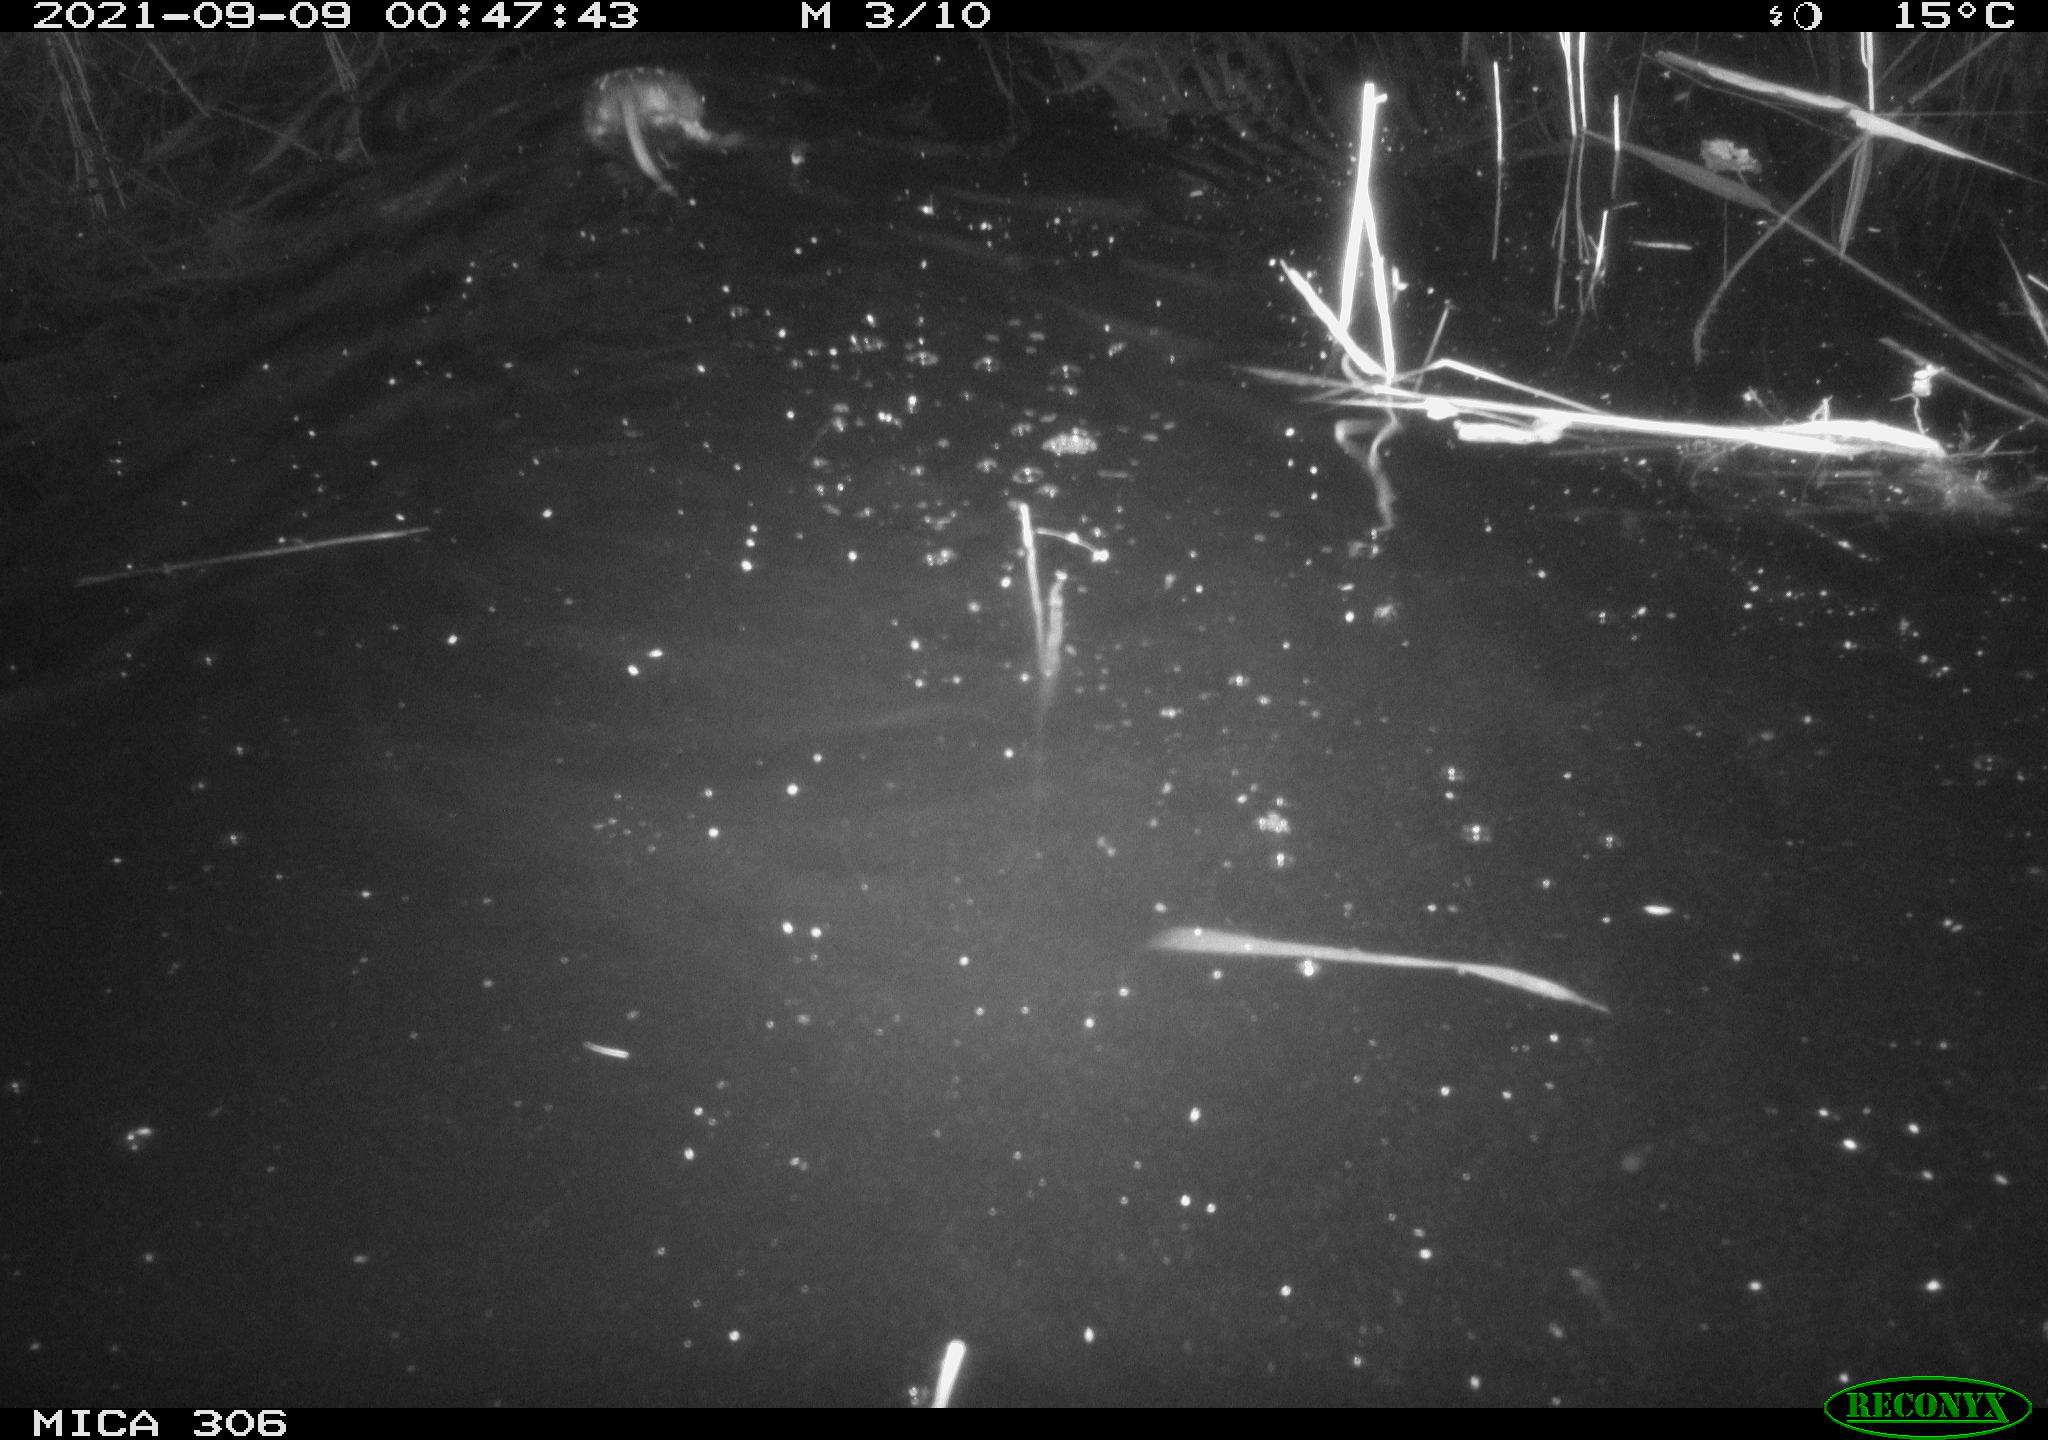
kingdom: Animalia
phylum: Chordata
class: Mammalia
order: Rodentia
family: Cricetidae
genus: Ondatra
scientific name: Ondatra zibethicus
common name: Muskrat
